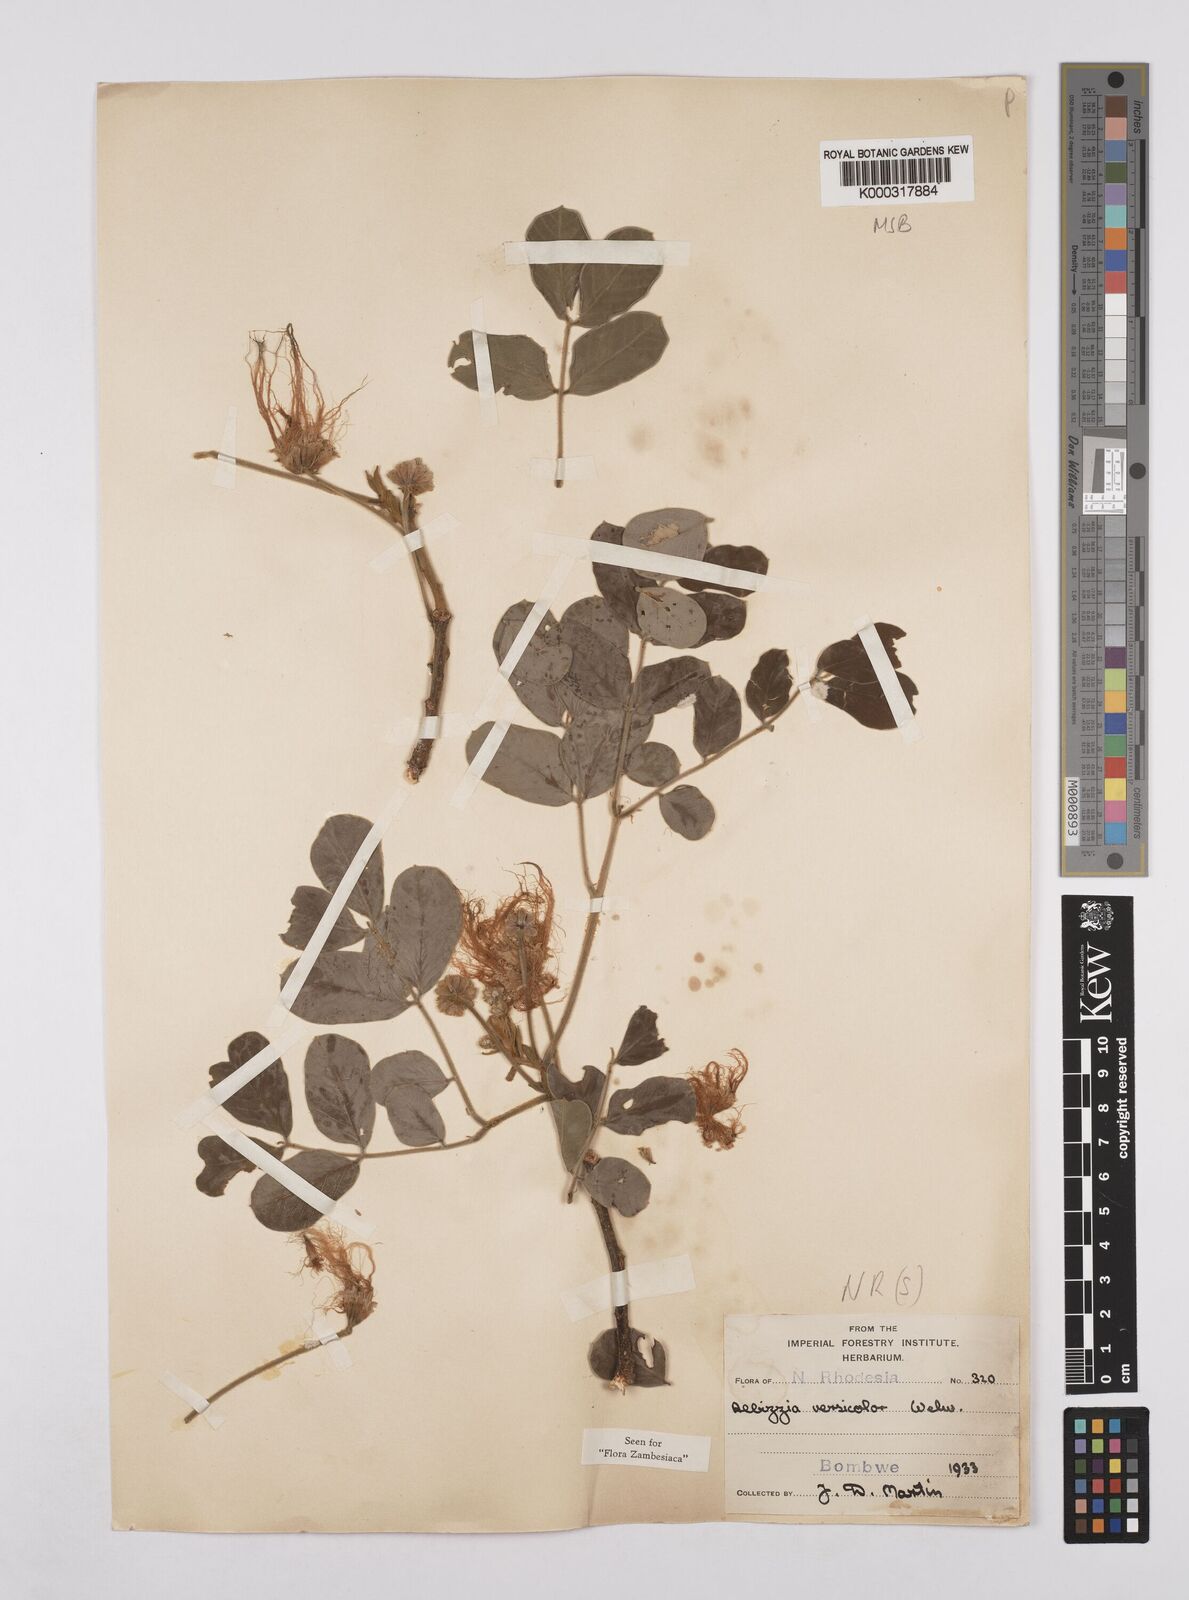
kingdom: Plantae
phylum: Tracheophyta
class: Magnoliopsida
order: Fabales
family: Fabaceae
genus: Albizia
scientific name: Albizia versicolor
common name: Poisonpod
